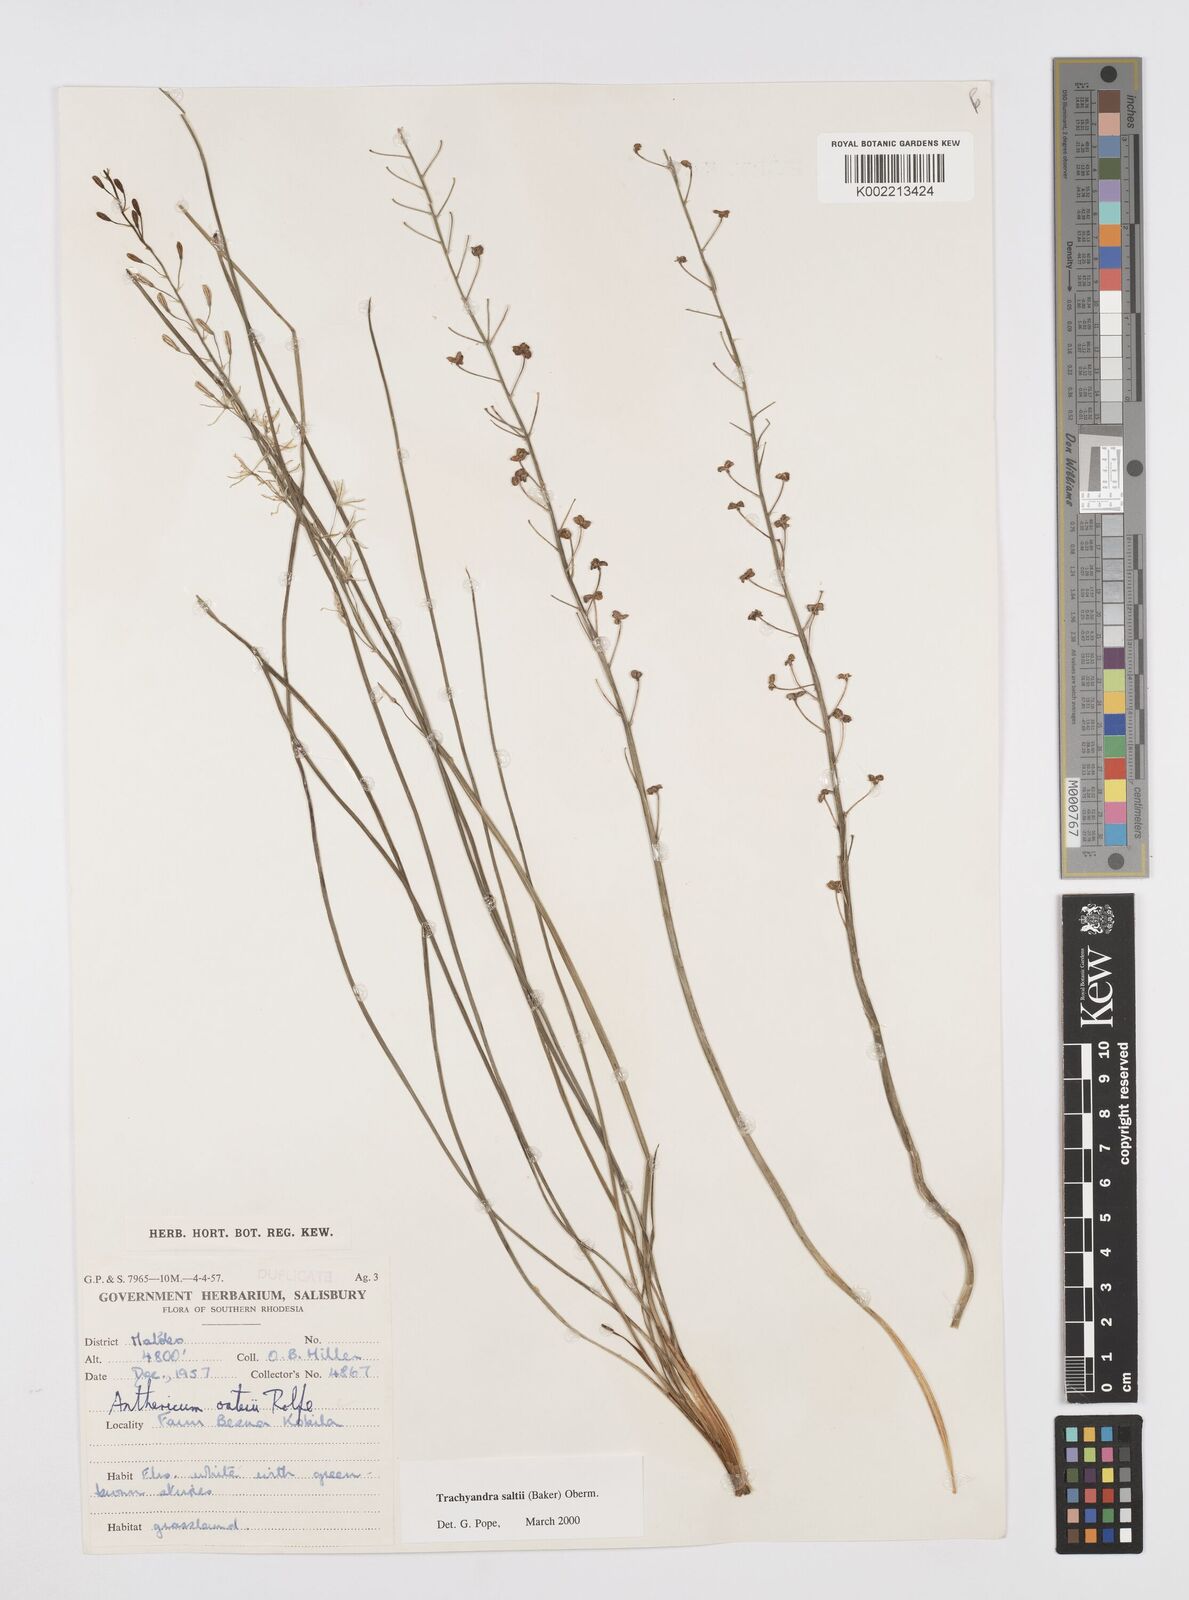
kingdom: Plantae
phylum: Tracheophyta
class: Liliopsida
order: Asparagales
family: Asphodelaceae
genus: Trachyandra
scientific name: Trachyandra saltii
